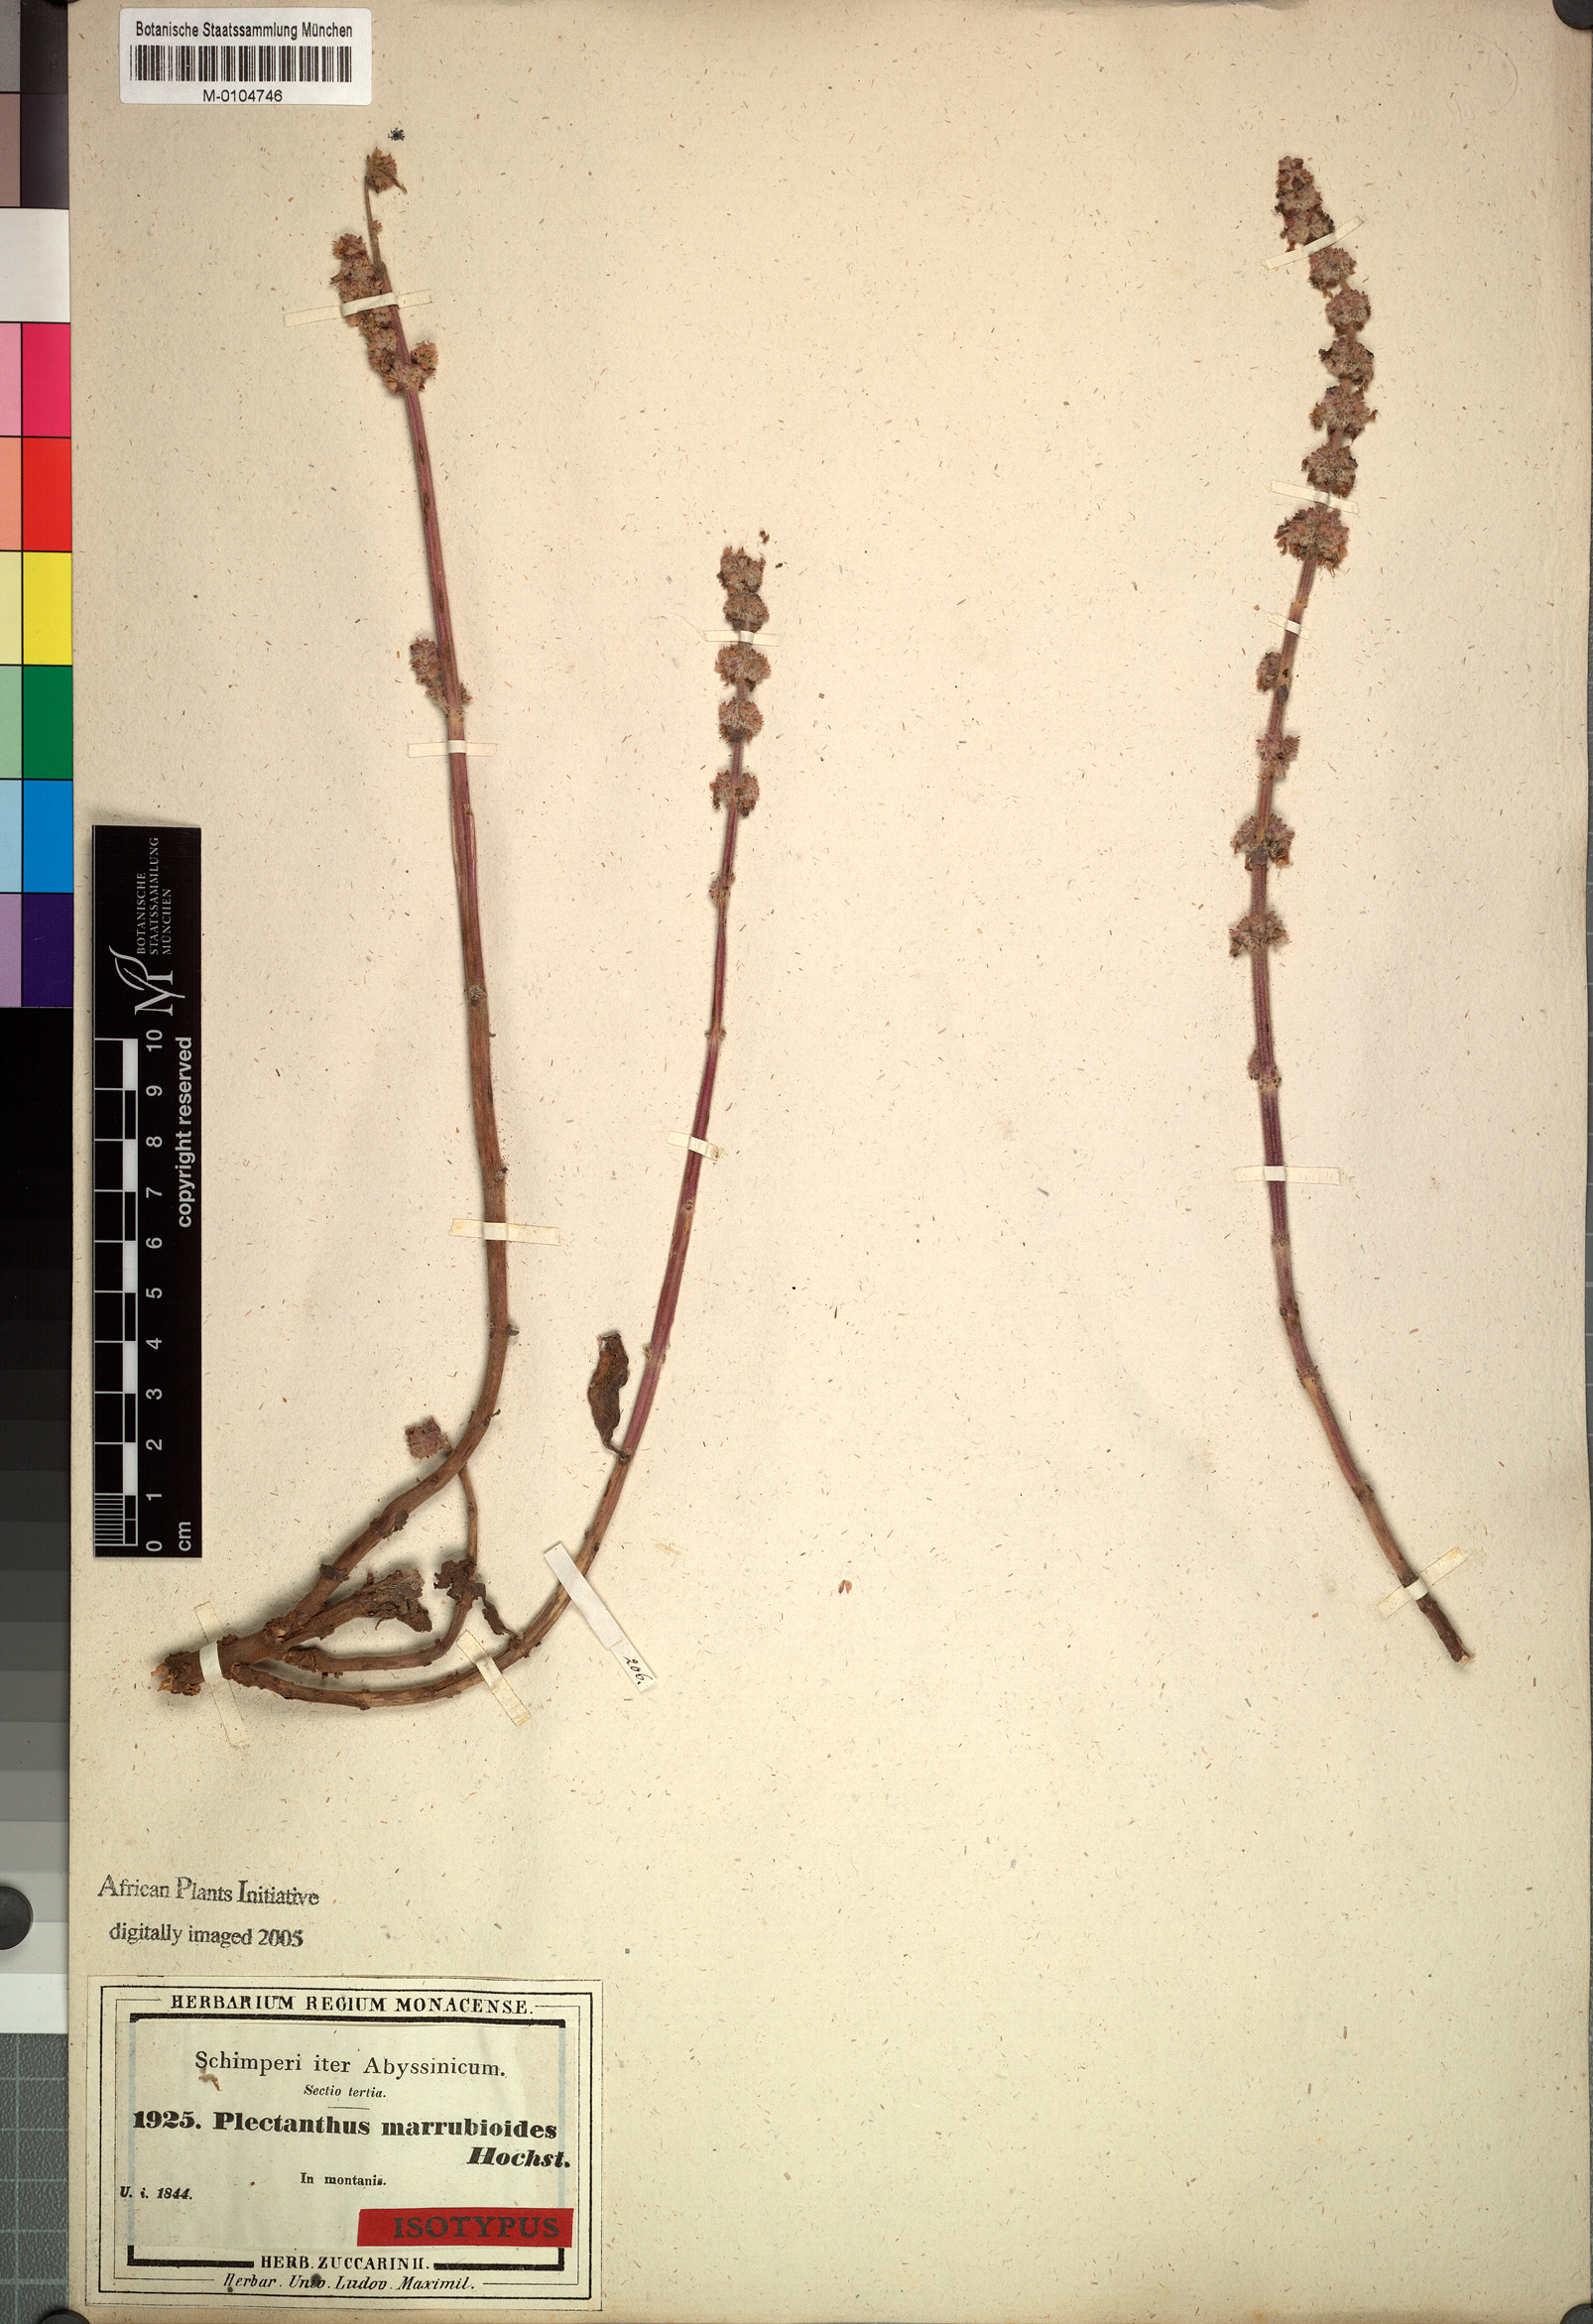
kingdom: Plantae
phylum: Tracheophyta
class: Magnoliopsida
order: Lamiales
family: Lamiaceae
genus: Coleus
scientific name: Coleus cylindraceus
